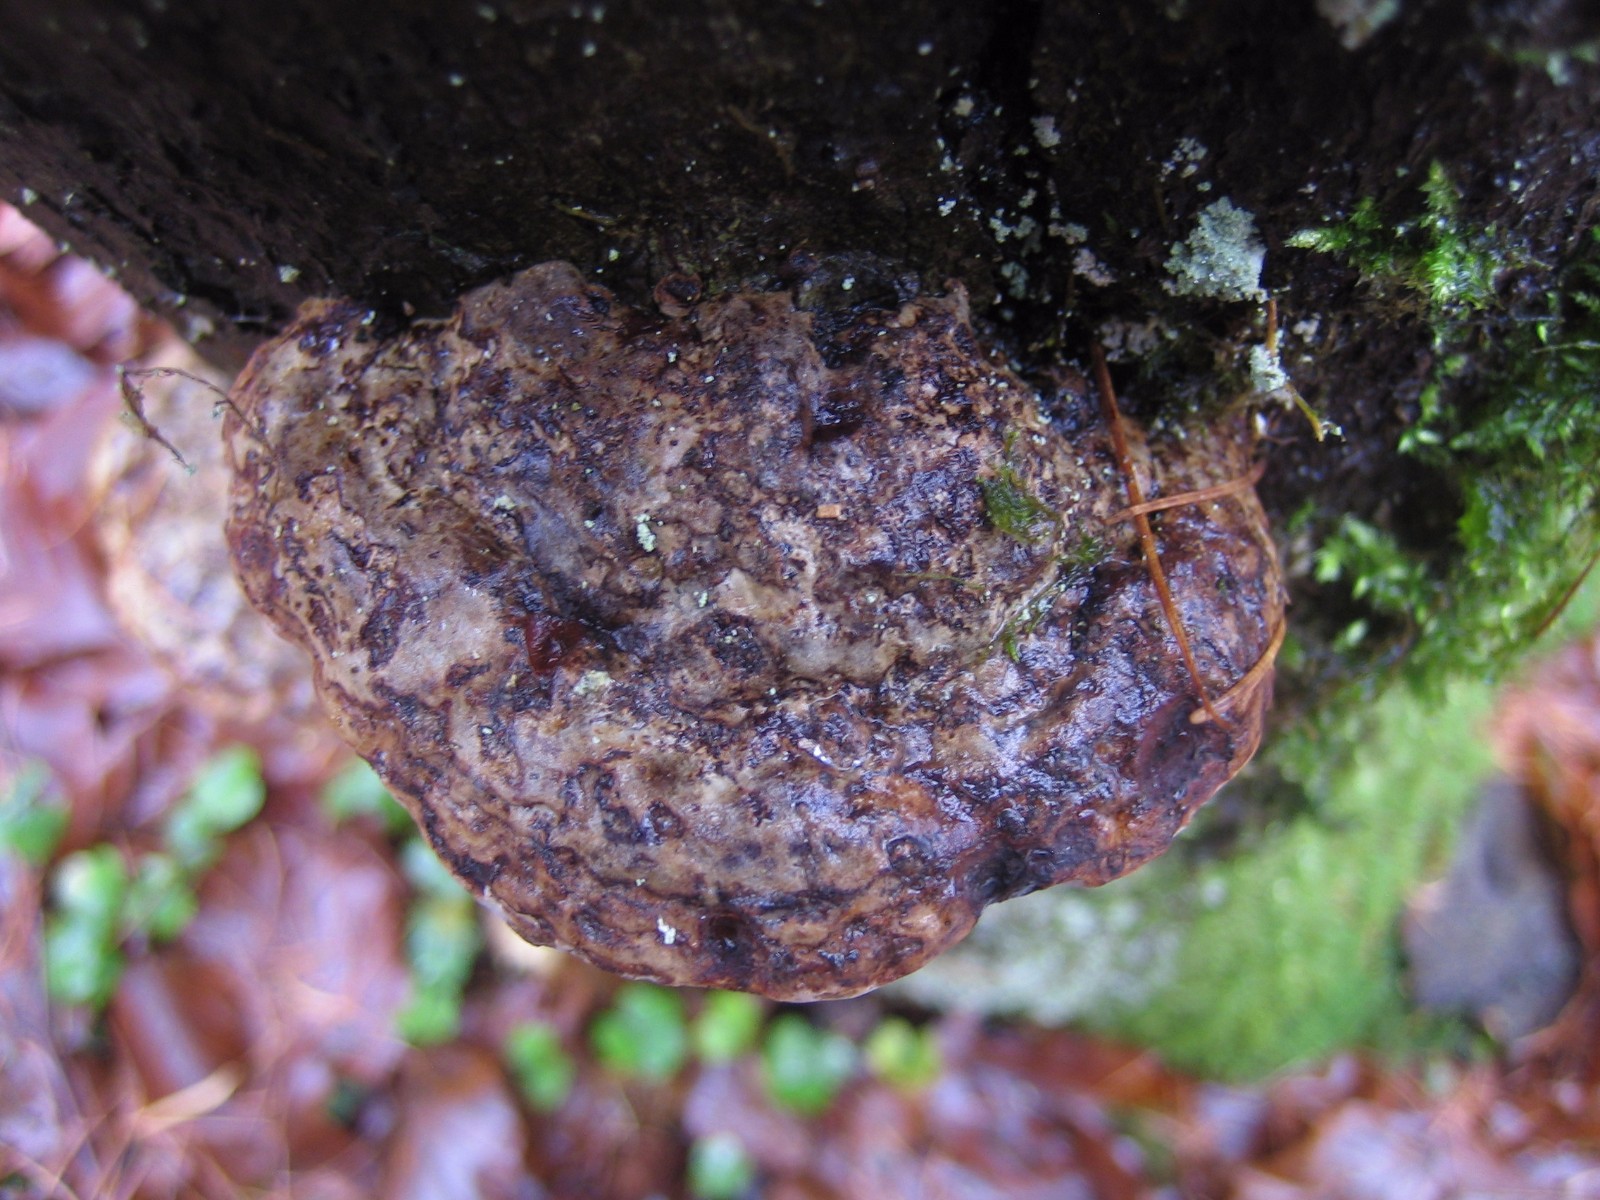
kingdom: Fungi
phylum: Basidiomycota
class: Agaricomycetes
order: Polyporales
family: Polyporaceae
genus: Fomes
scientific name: Fomes fomentarius
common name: tøndersvamp
